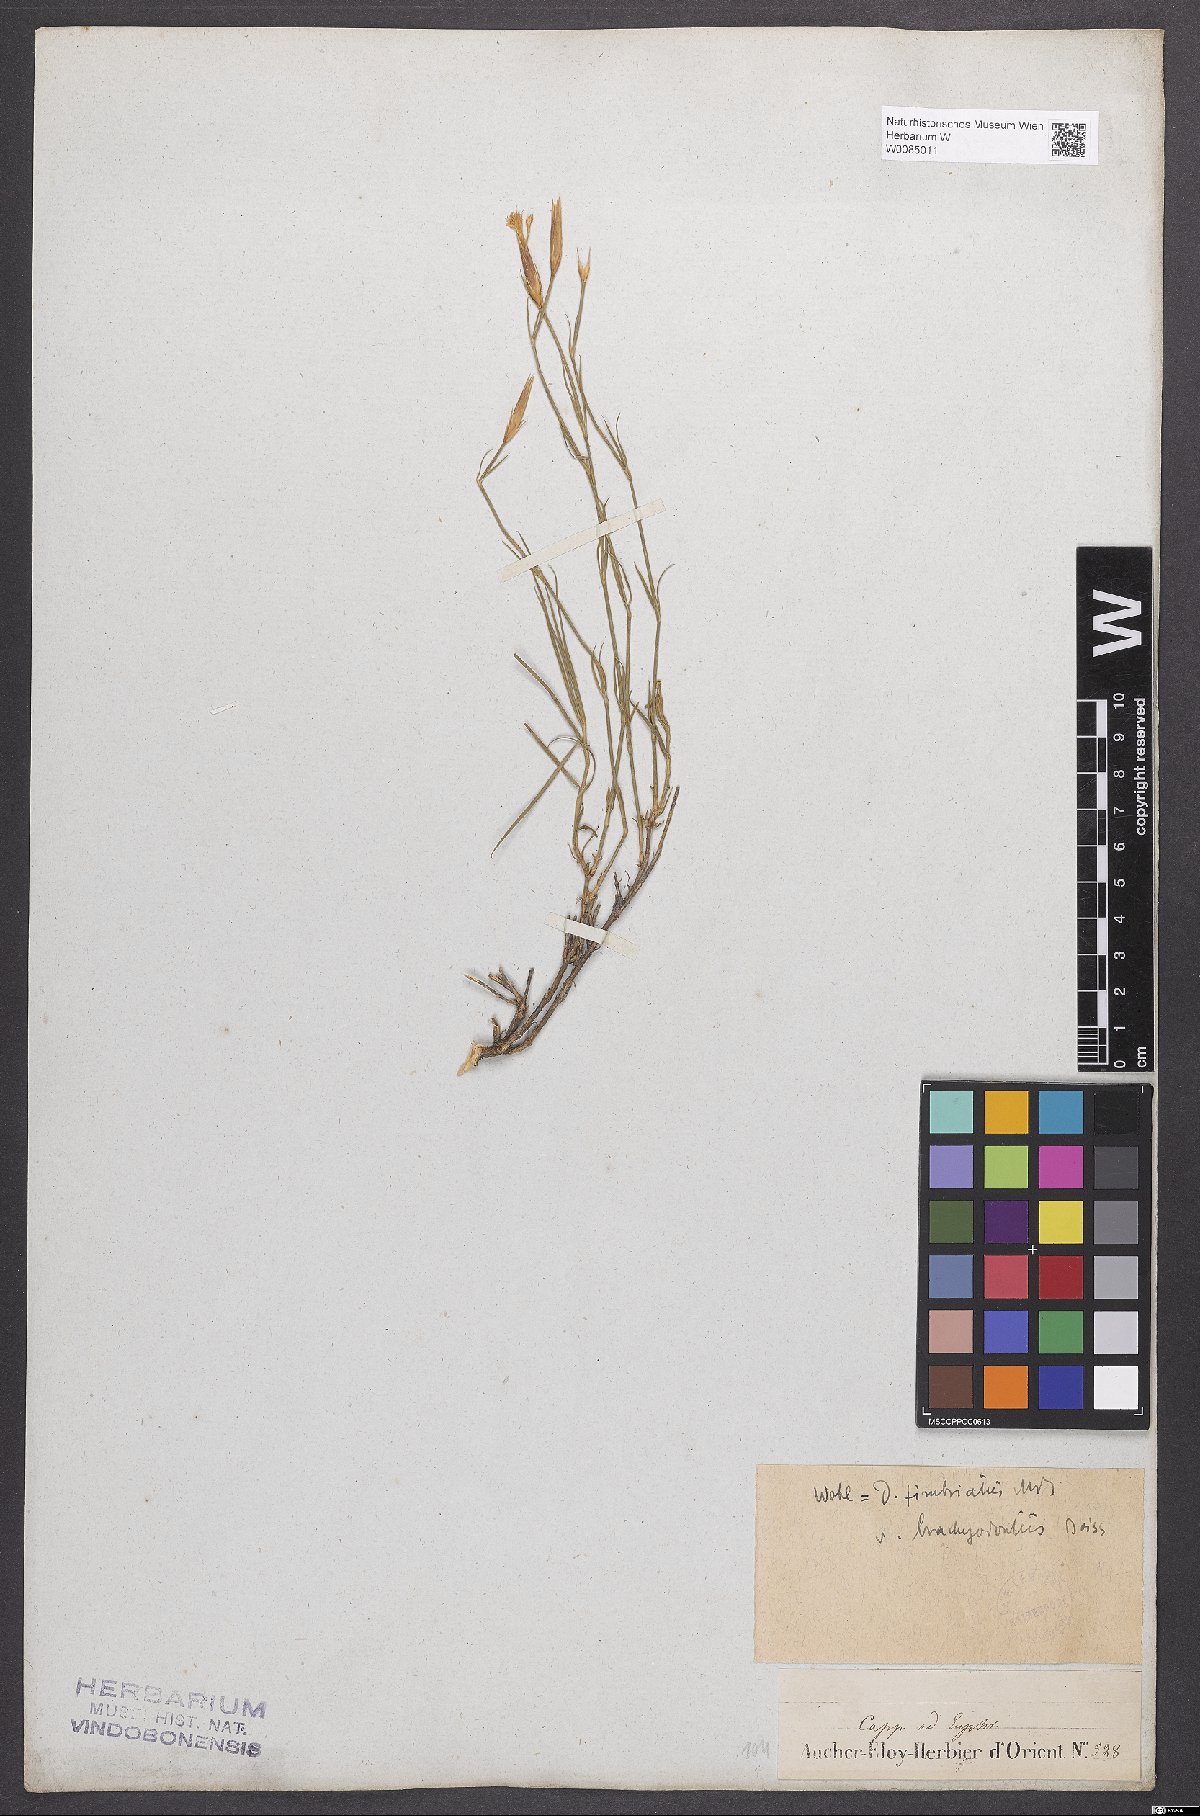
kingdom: Plantae
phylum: Tracheophyta
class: Magnoliopsida
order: Caryophyllales
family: Caryophyllaceae
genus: Dianthus
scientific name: Dianthus broteri
